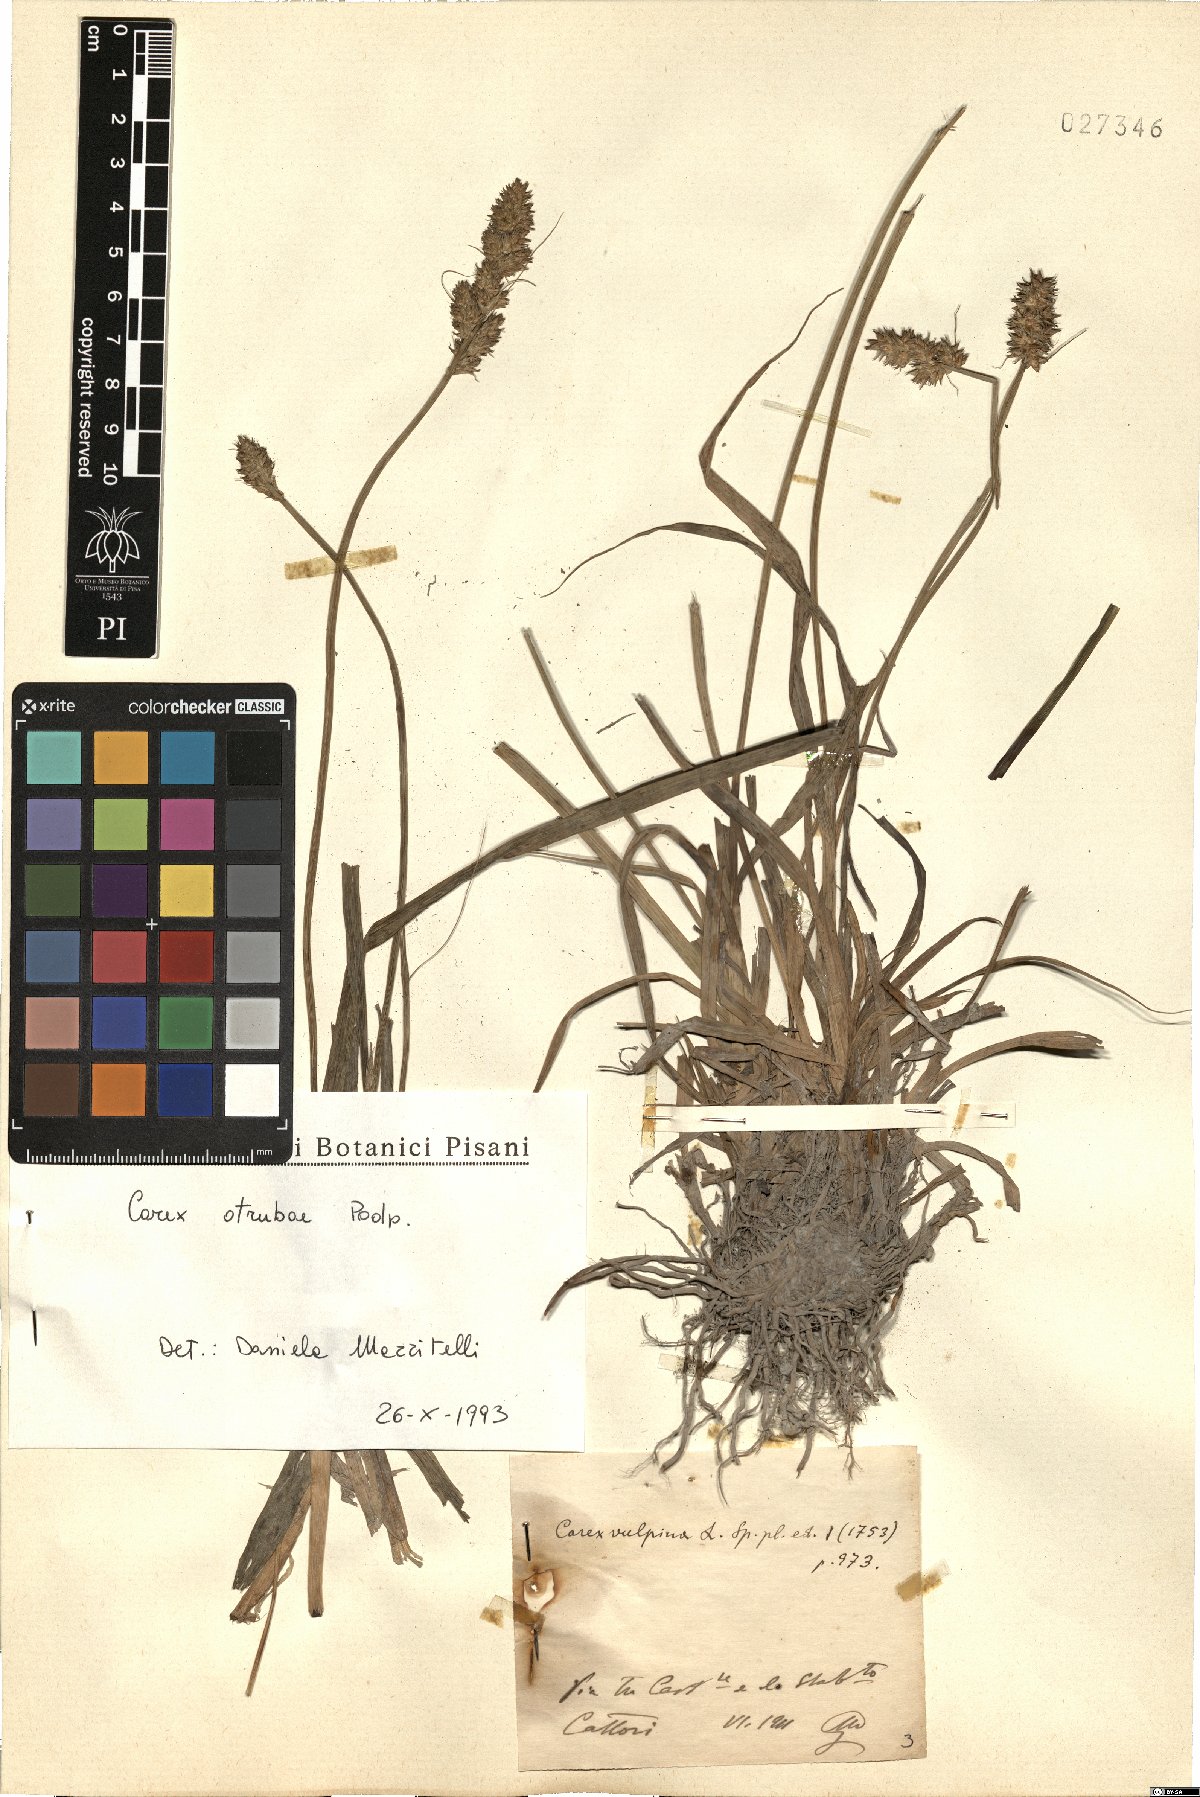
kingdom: Plantae
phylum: Tracheophyta
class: Liliopsida
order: Poales
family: Cyperaceae
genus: Carex
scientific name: Carex otrubae
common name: False fox-sedge
